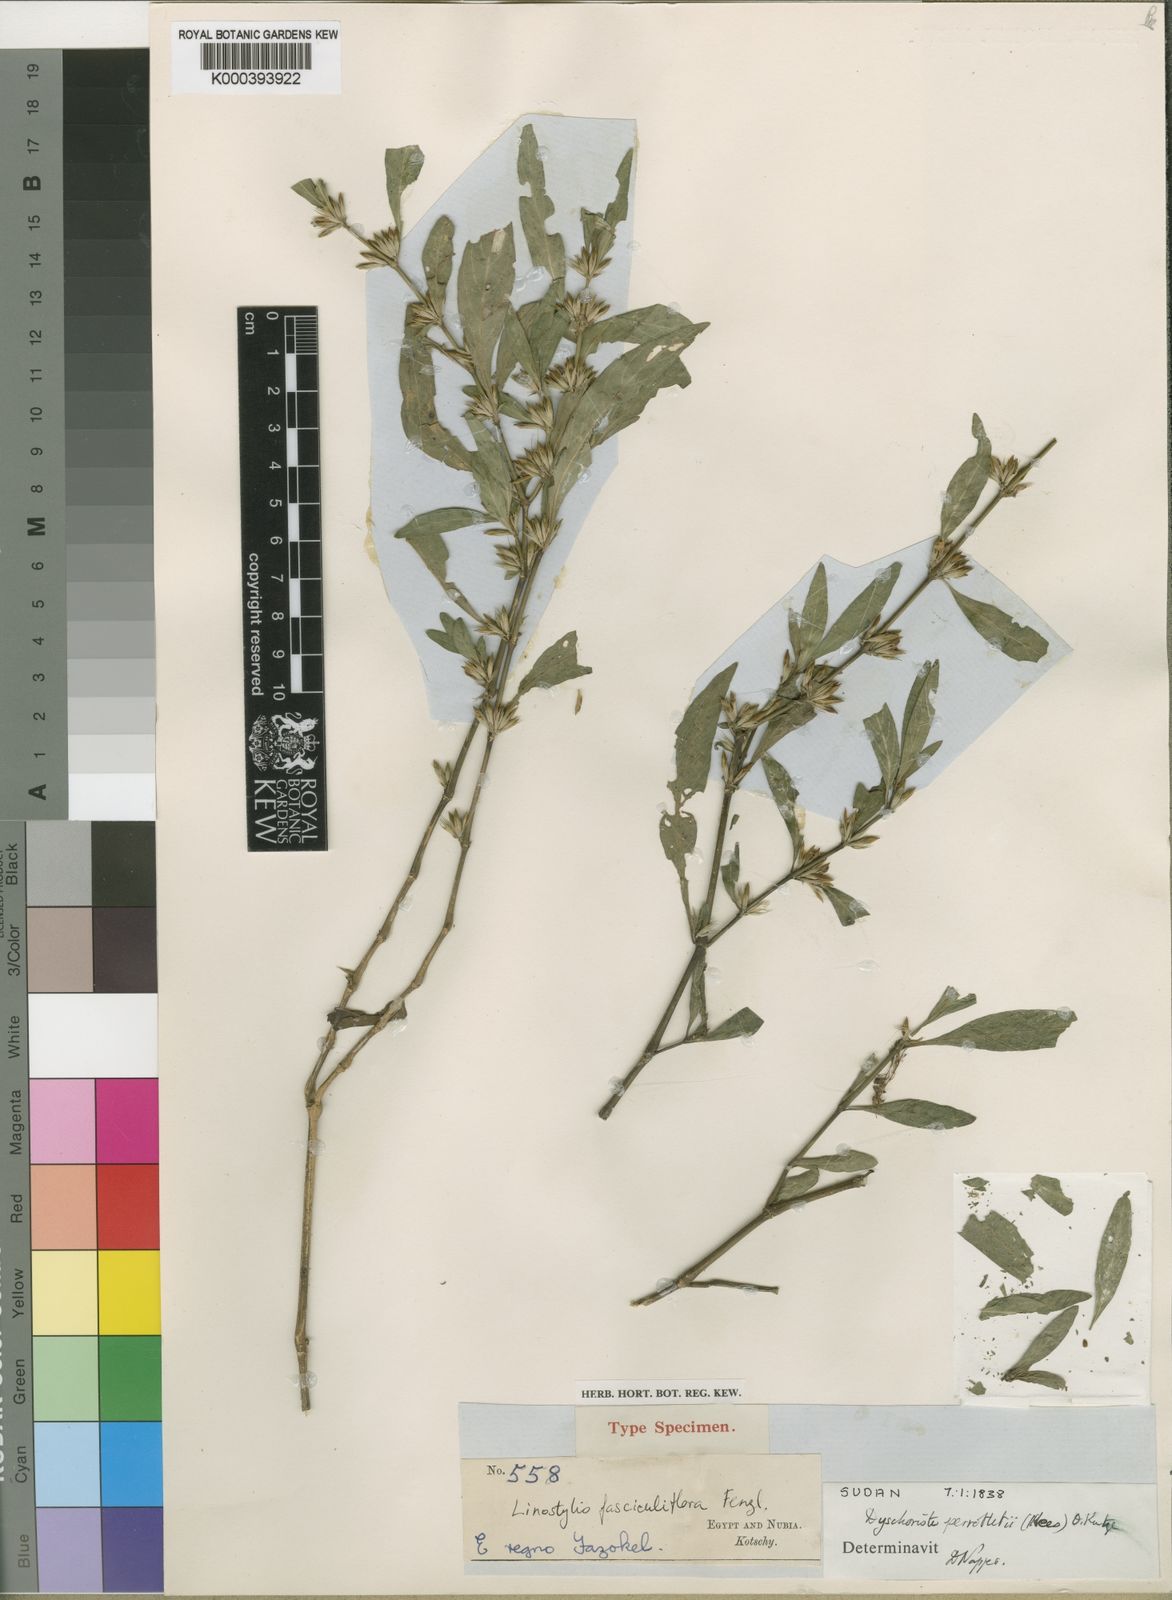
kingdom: Plantae
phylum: Tracheophyta
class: Magnoliopsida
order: Lamiales
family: Acanthaceae
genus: Dyschoriste
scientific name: Dyschoriste nagchana
